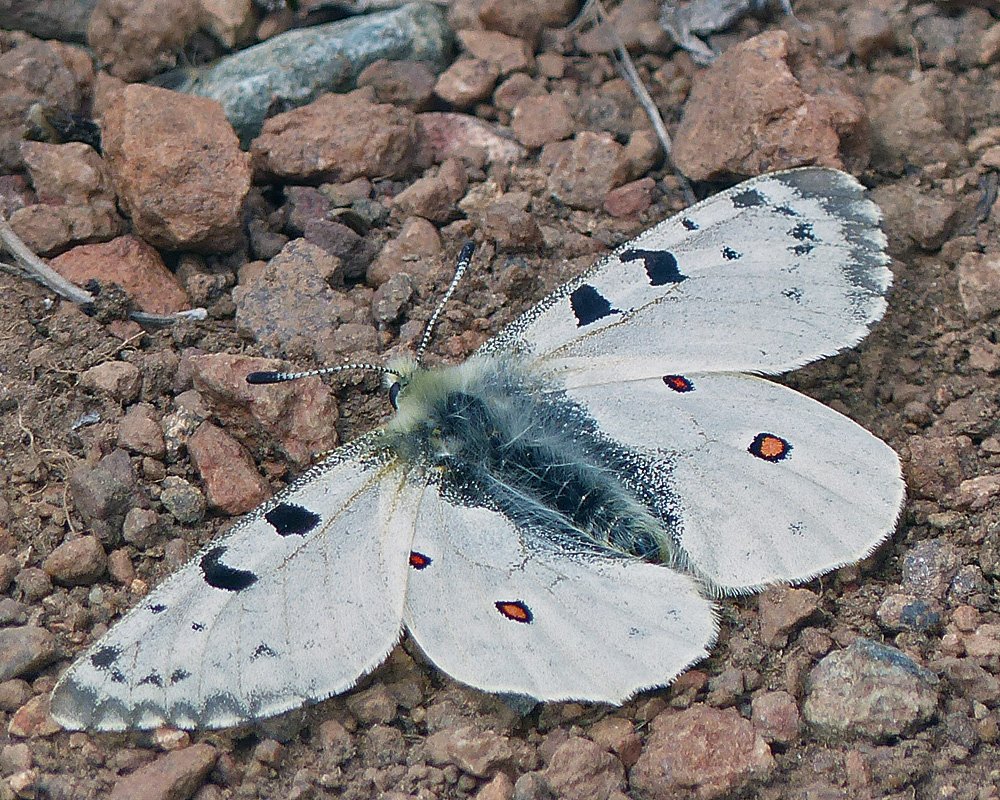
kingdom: Animalia
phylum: Arthropoda
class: Insecta
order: Lepidoptera
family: Papilionidae
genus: Parnassius
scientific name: Parnassius smintheus
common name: Rocky Mountain Parnassian
